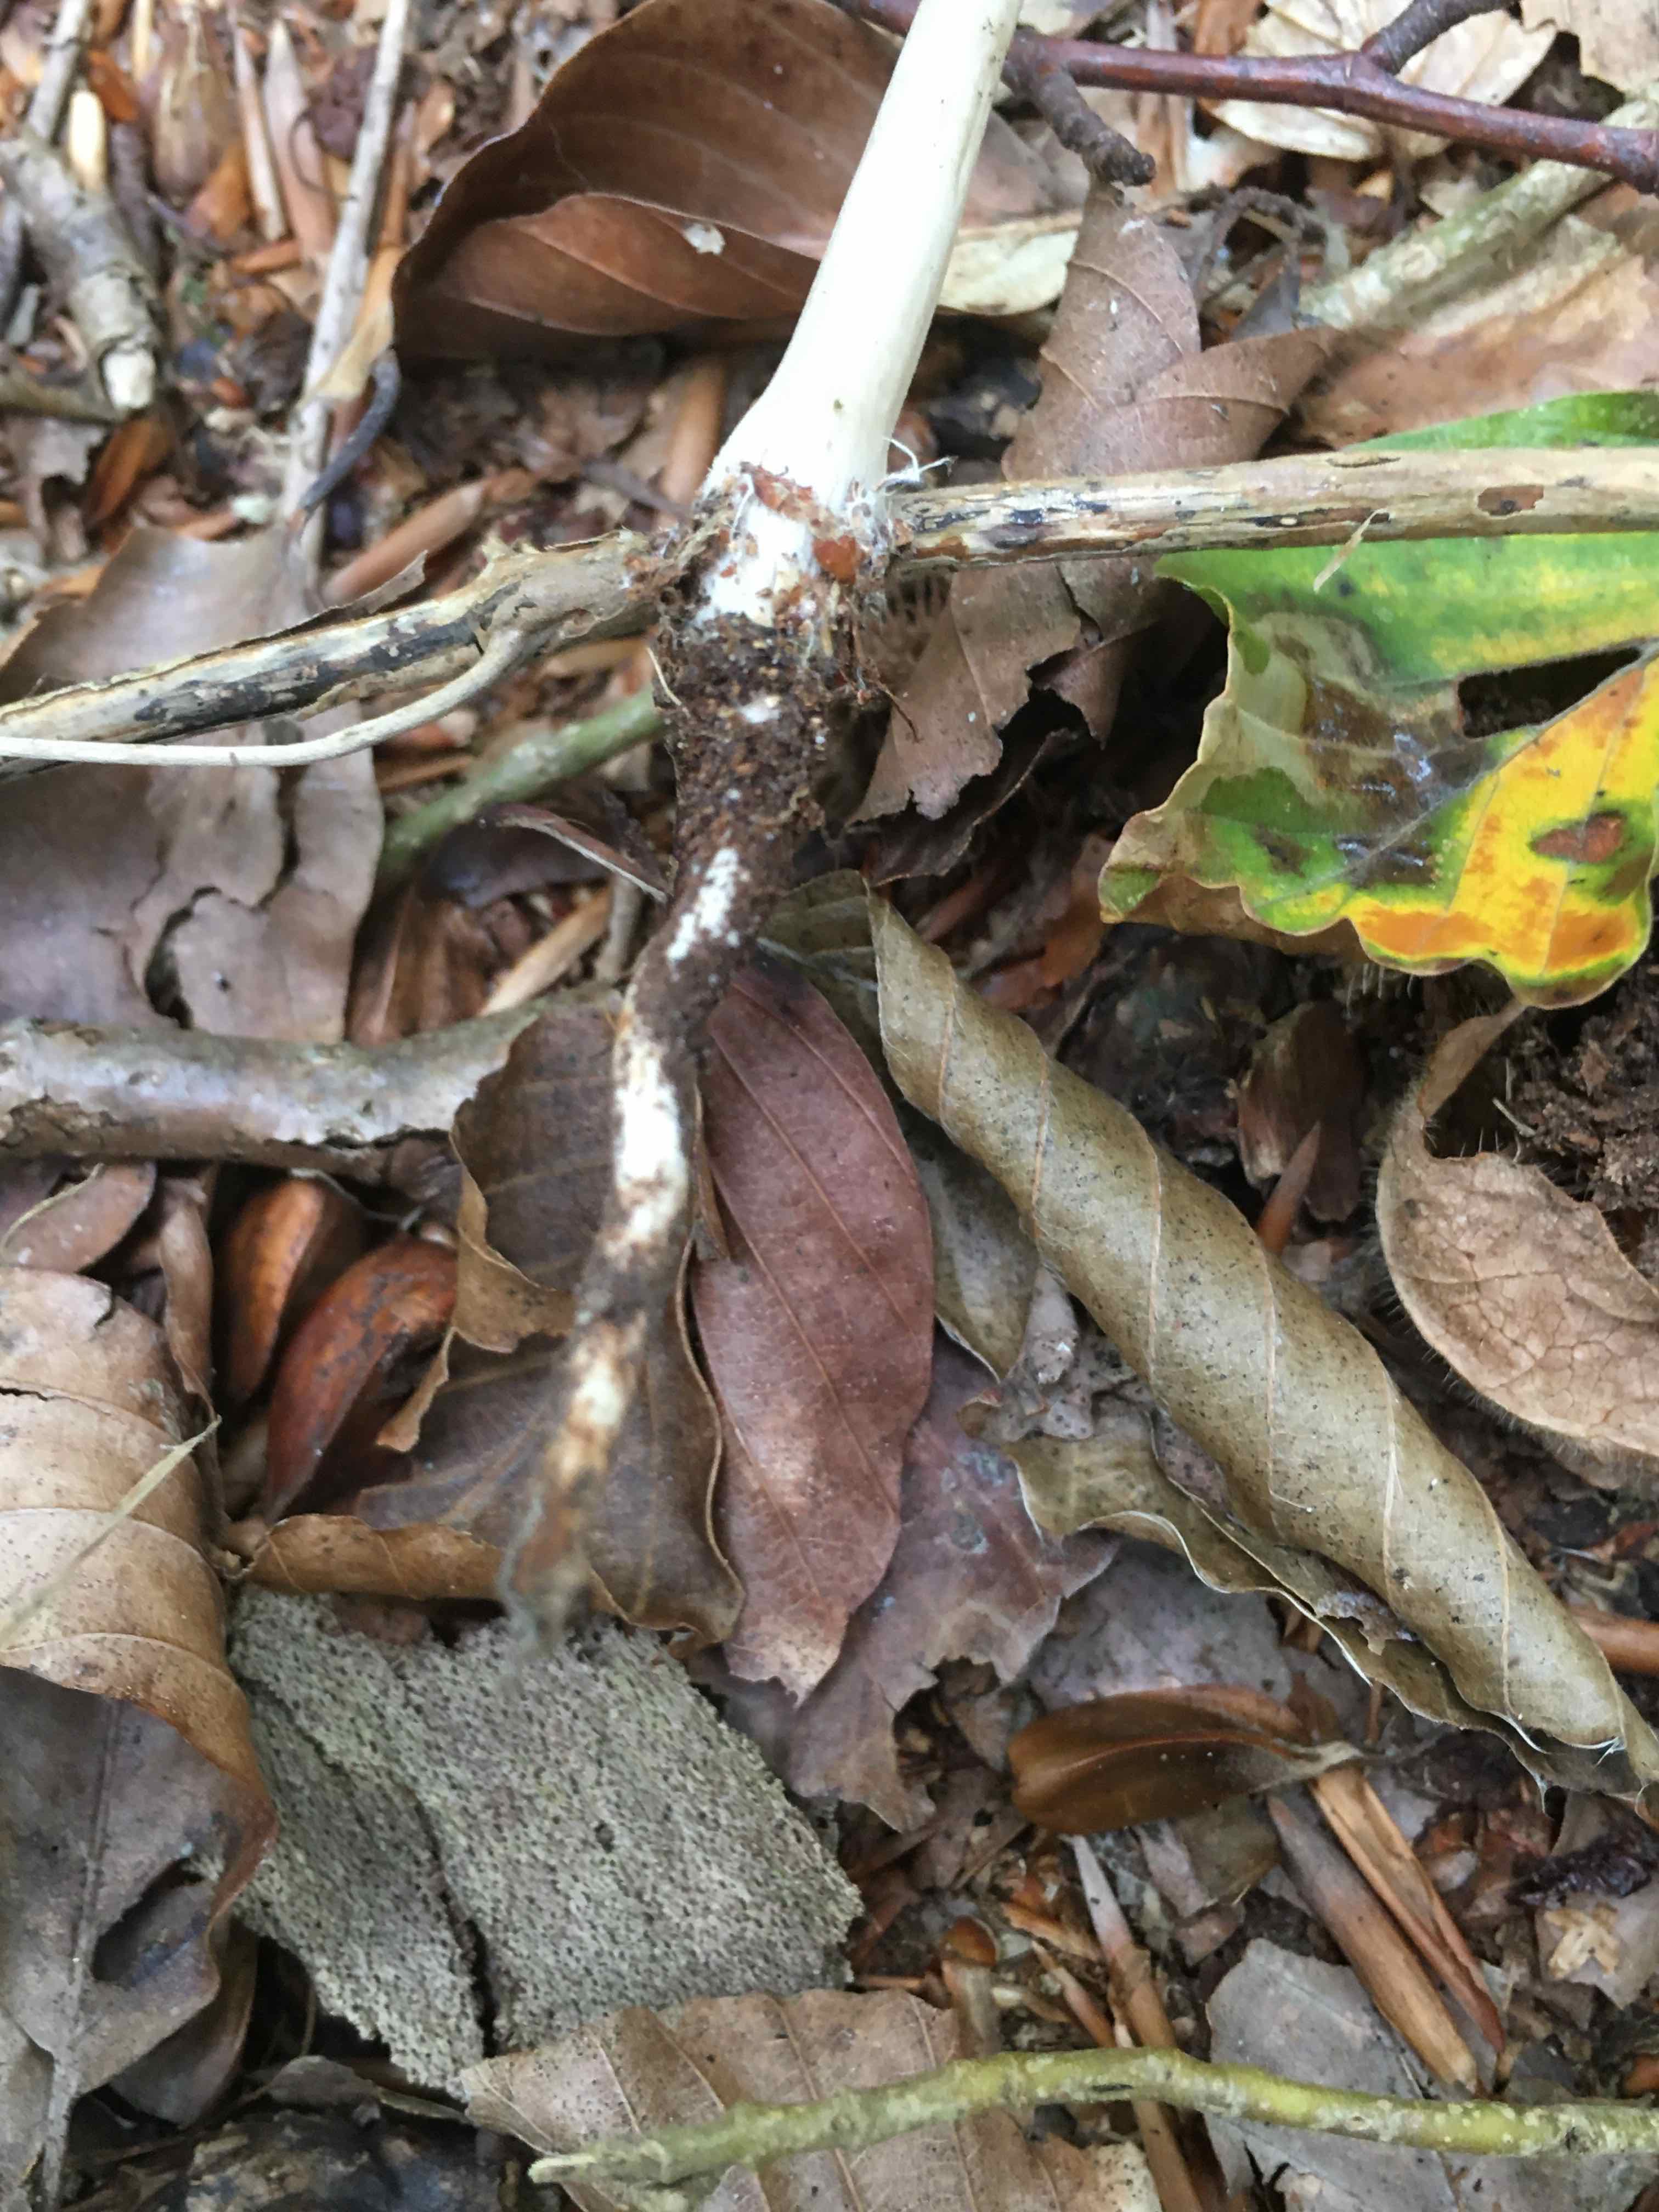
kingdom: Fungi
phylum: Basidiomycota
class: Agaricomycetes
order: Agaricales
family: Physalacriaceae
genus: Hymenopellis
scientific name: Hymenopellis radicata
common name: almindelig pælerodshat
